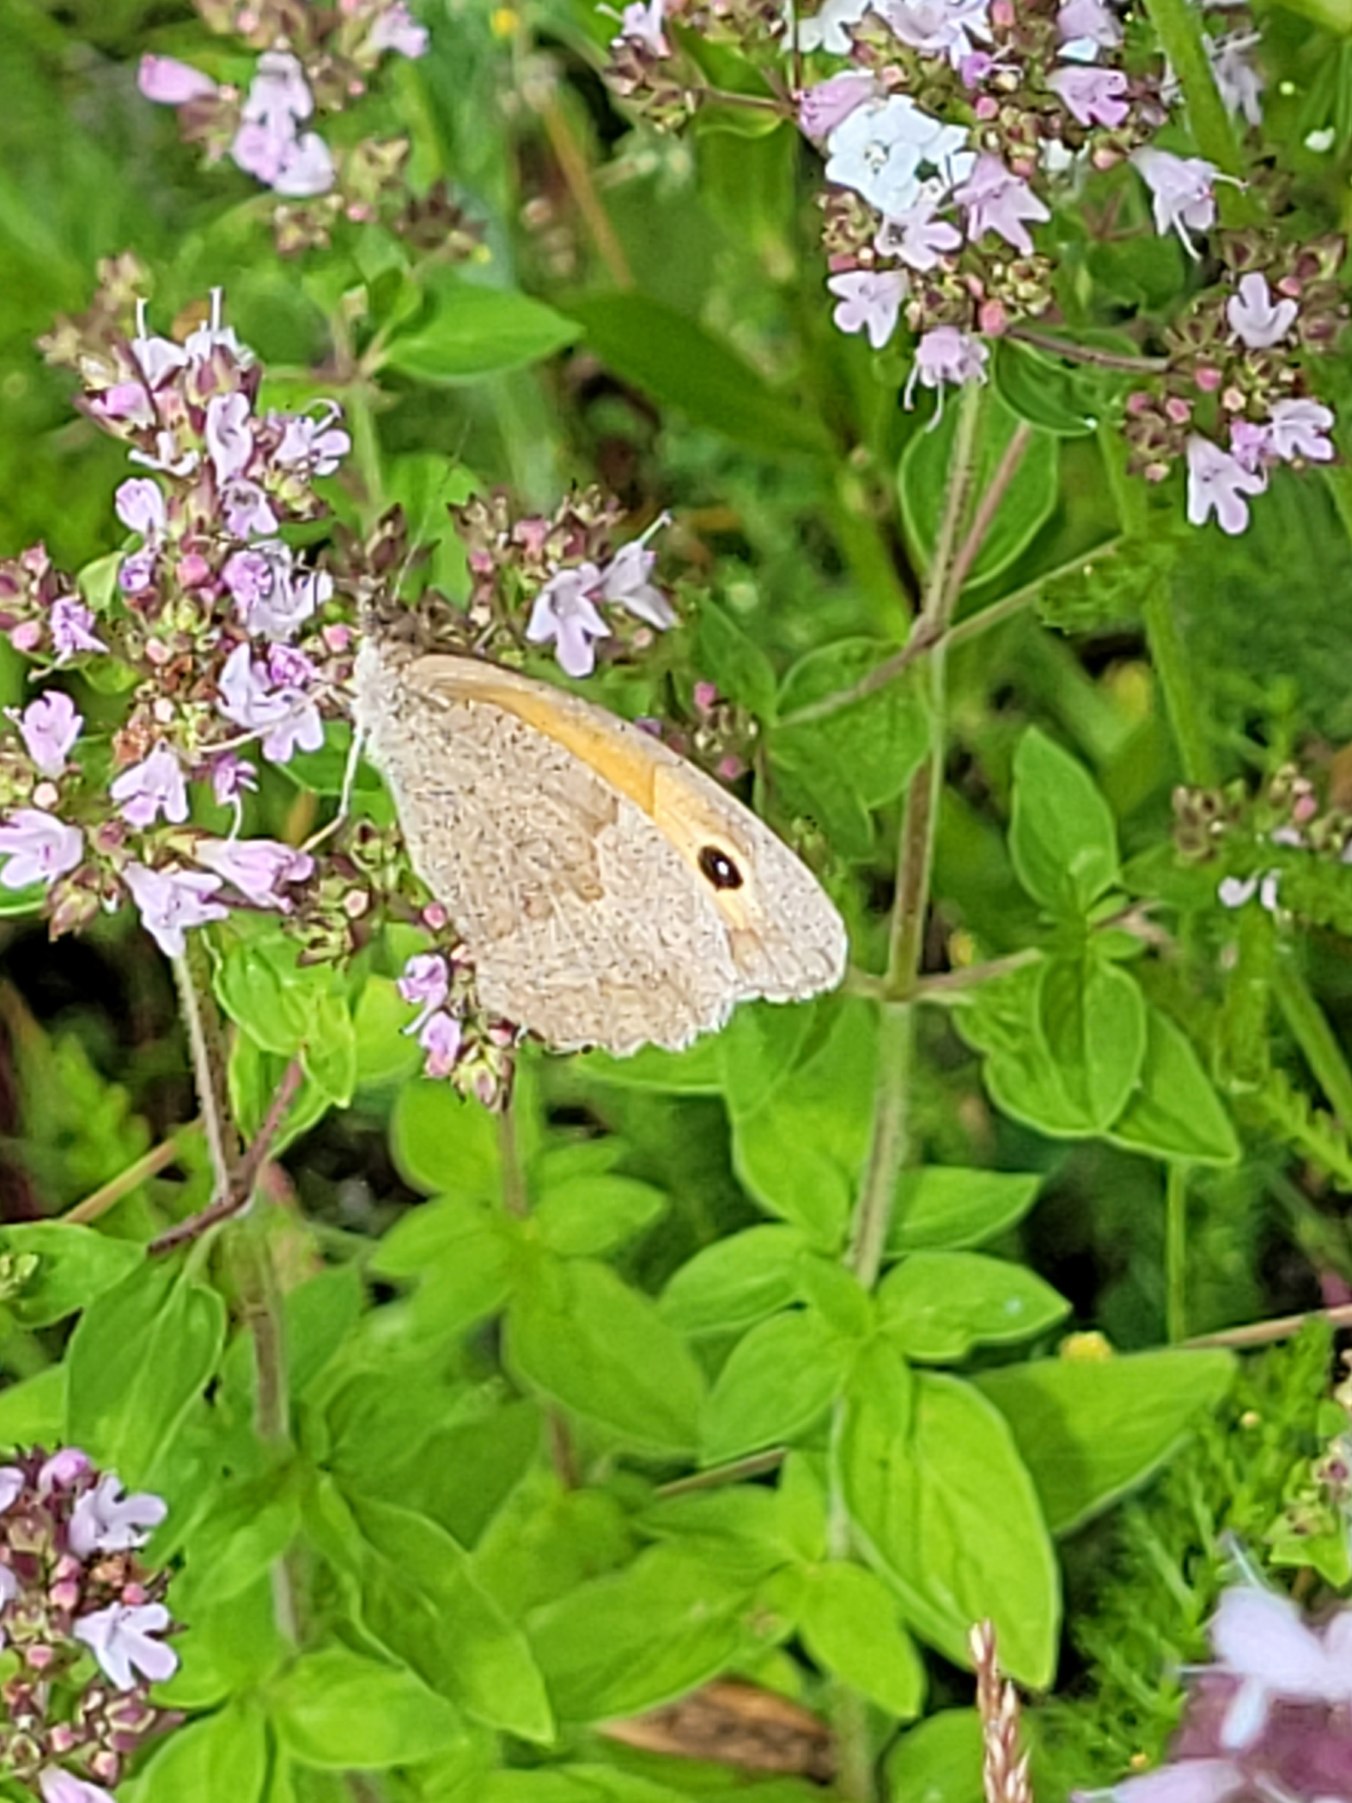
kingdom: Animalia
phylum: Arthropoda
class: Insecta
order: Lepidoptera
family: Nymphalidae
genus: Maniola
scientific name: Maniola jurtina
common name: Græsrandøje
